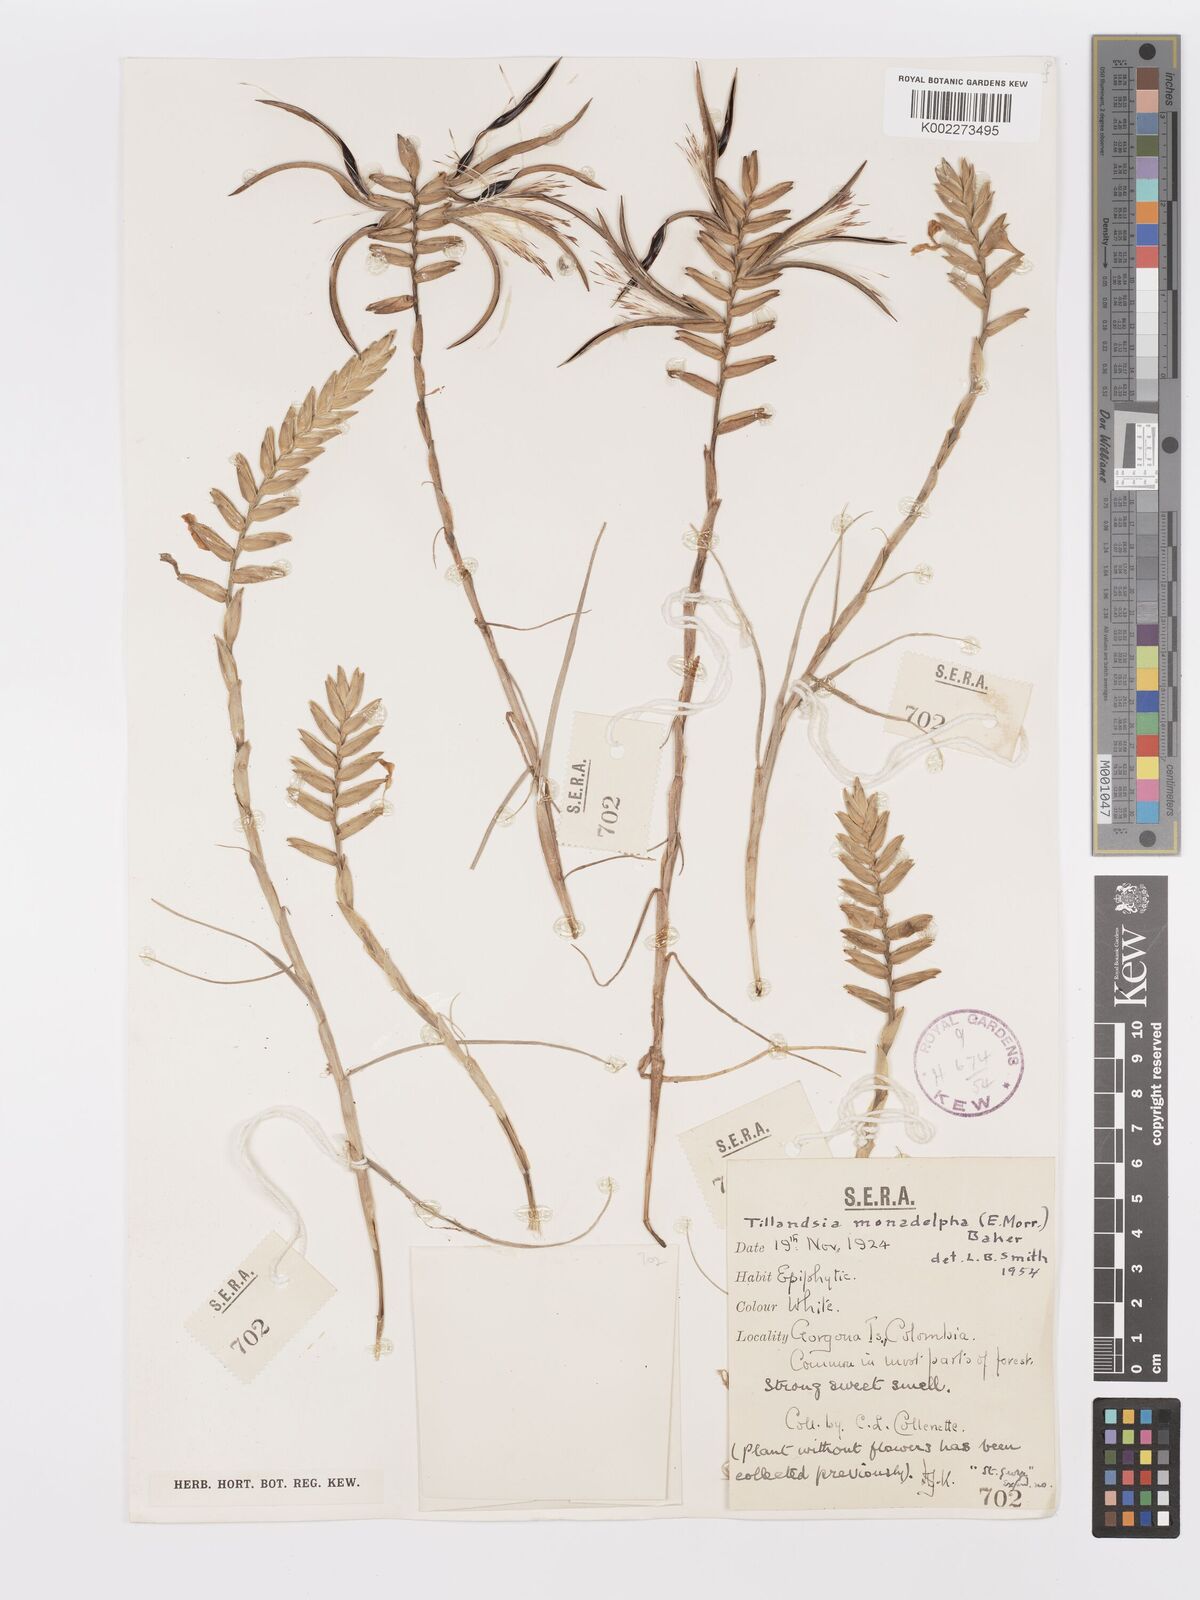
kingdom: Plantae
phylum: Tracheophyta
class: Liliopsida
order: Poales
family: Bromeliaceae
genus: Lemeltonia
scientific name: Lemeltonia monadelpha
